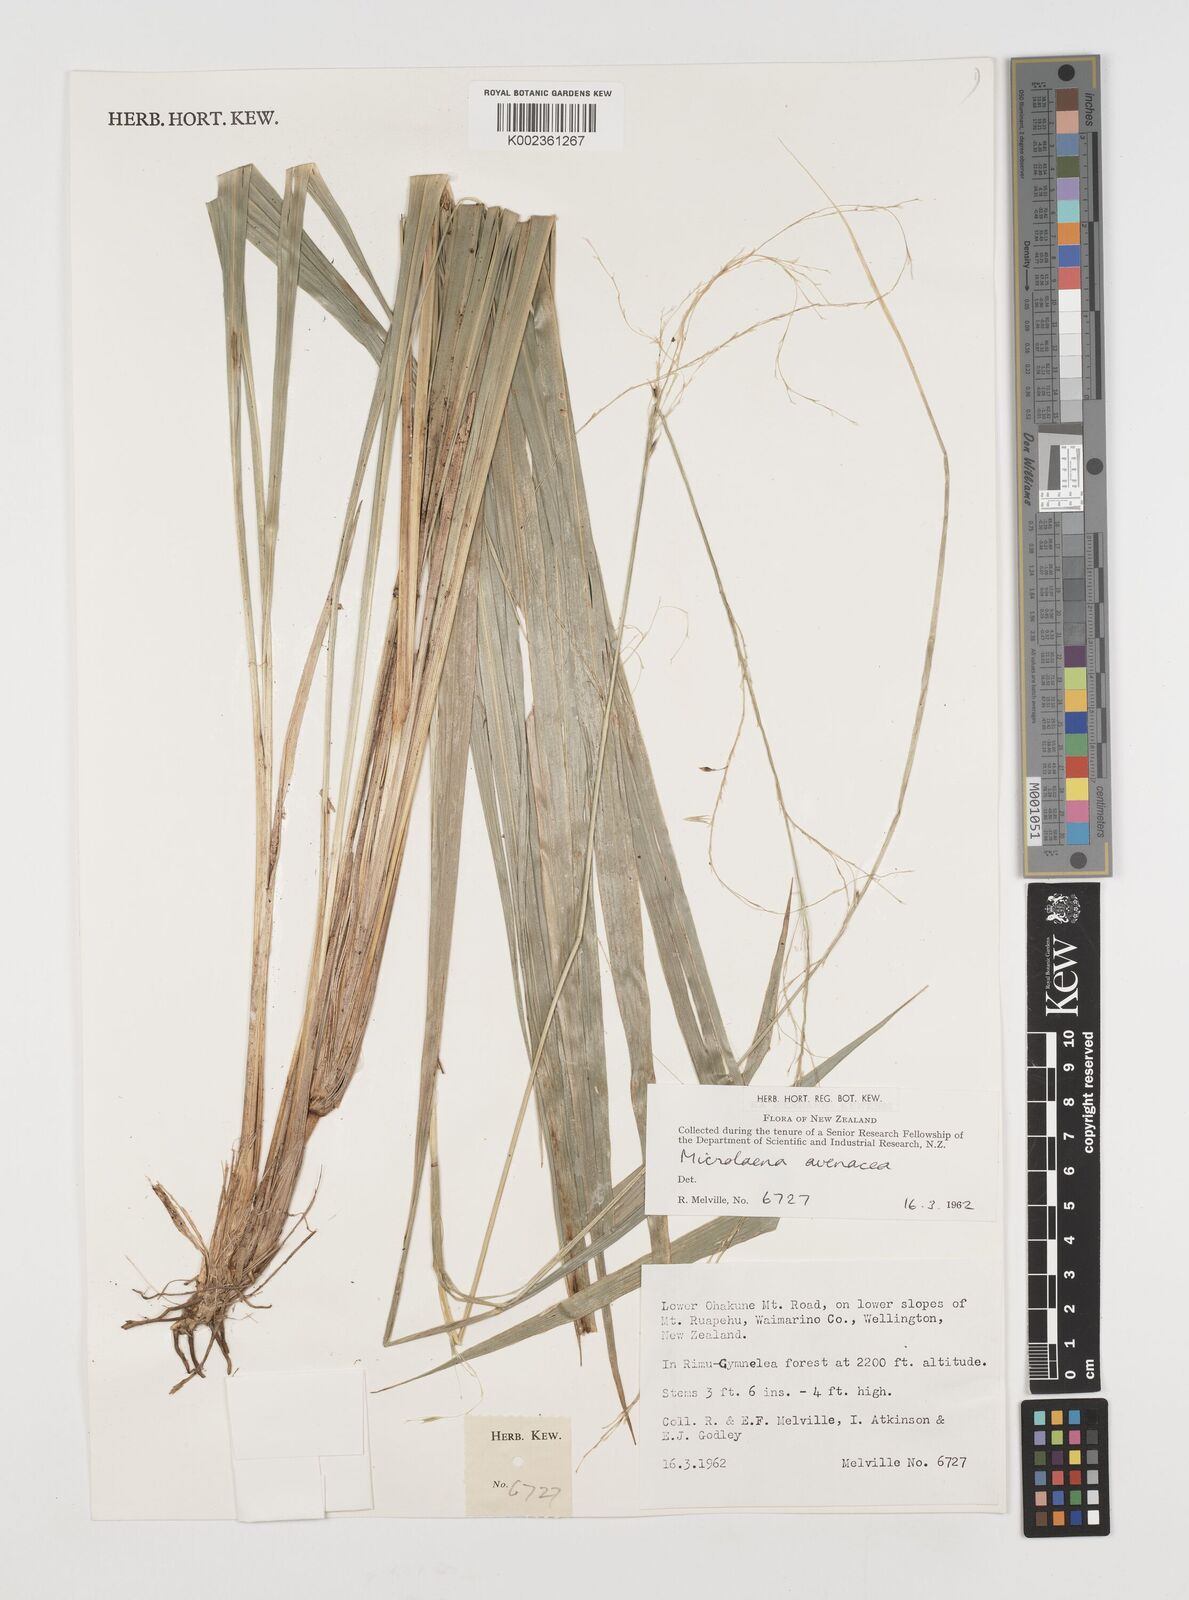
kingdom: Plantae
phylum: Tracheophyta
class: Liliopsida
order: Poales
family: Poaceae
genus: Ehrharta
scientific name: Ehrharta diplax
